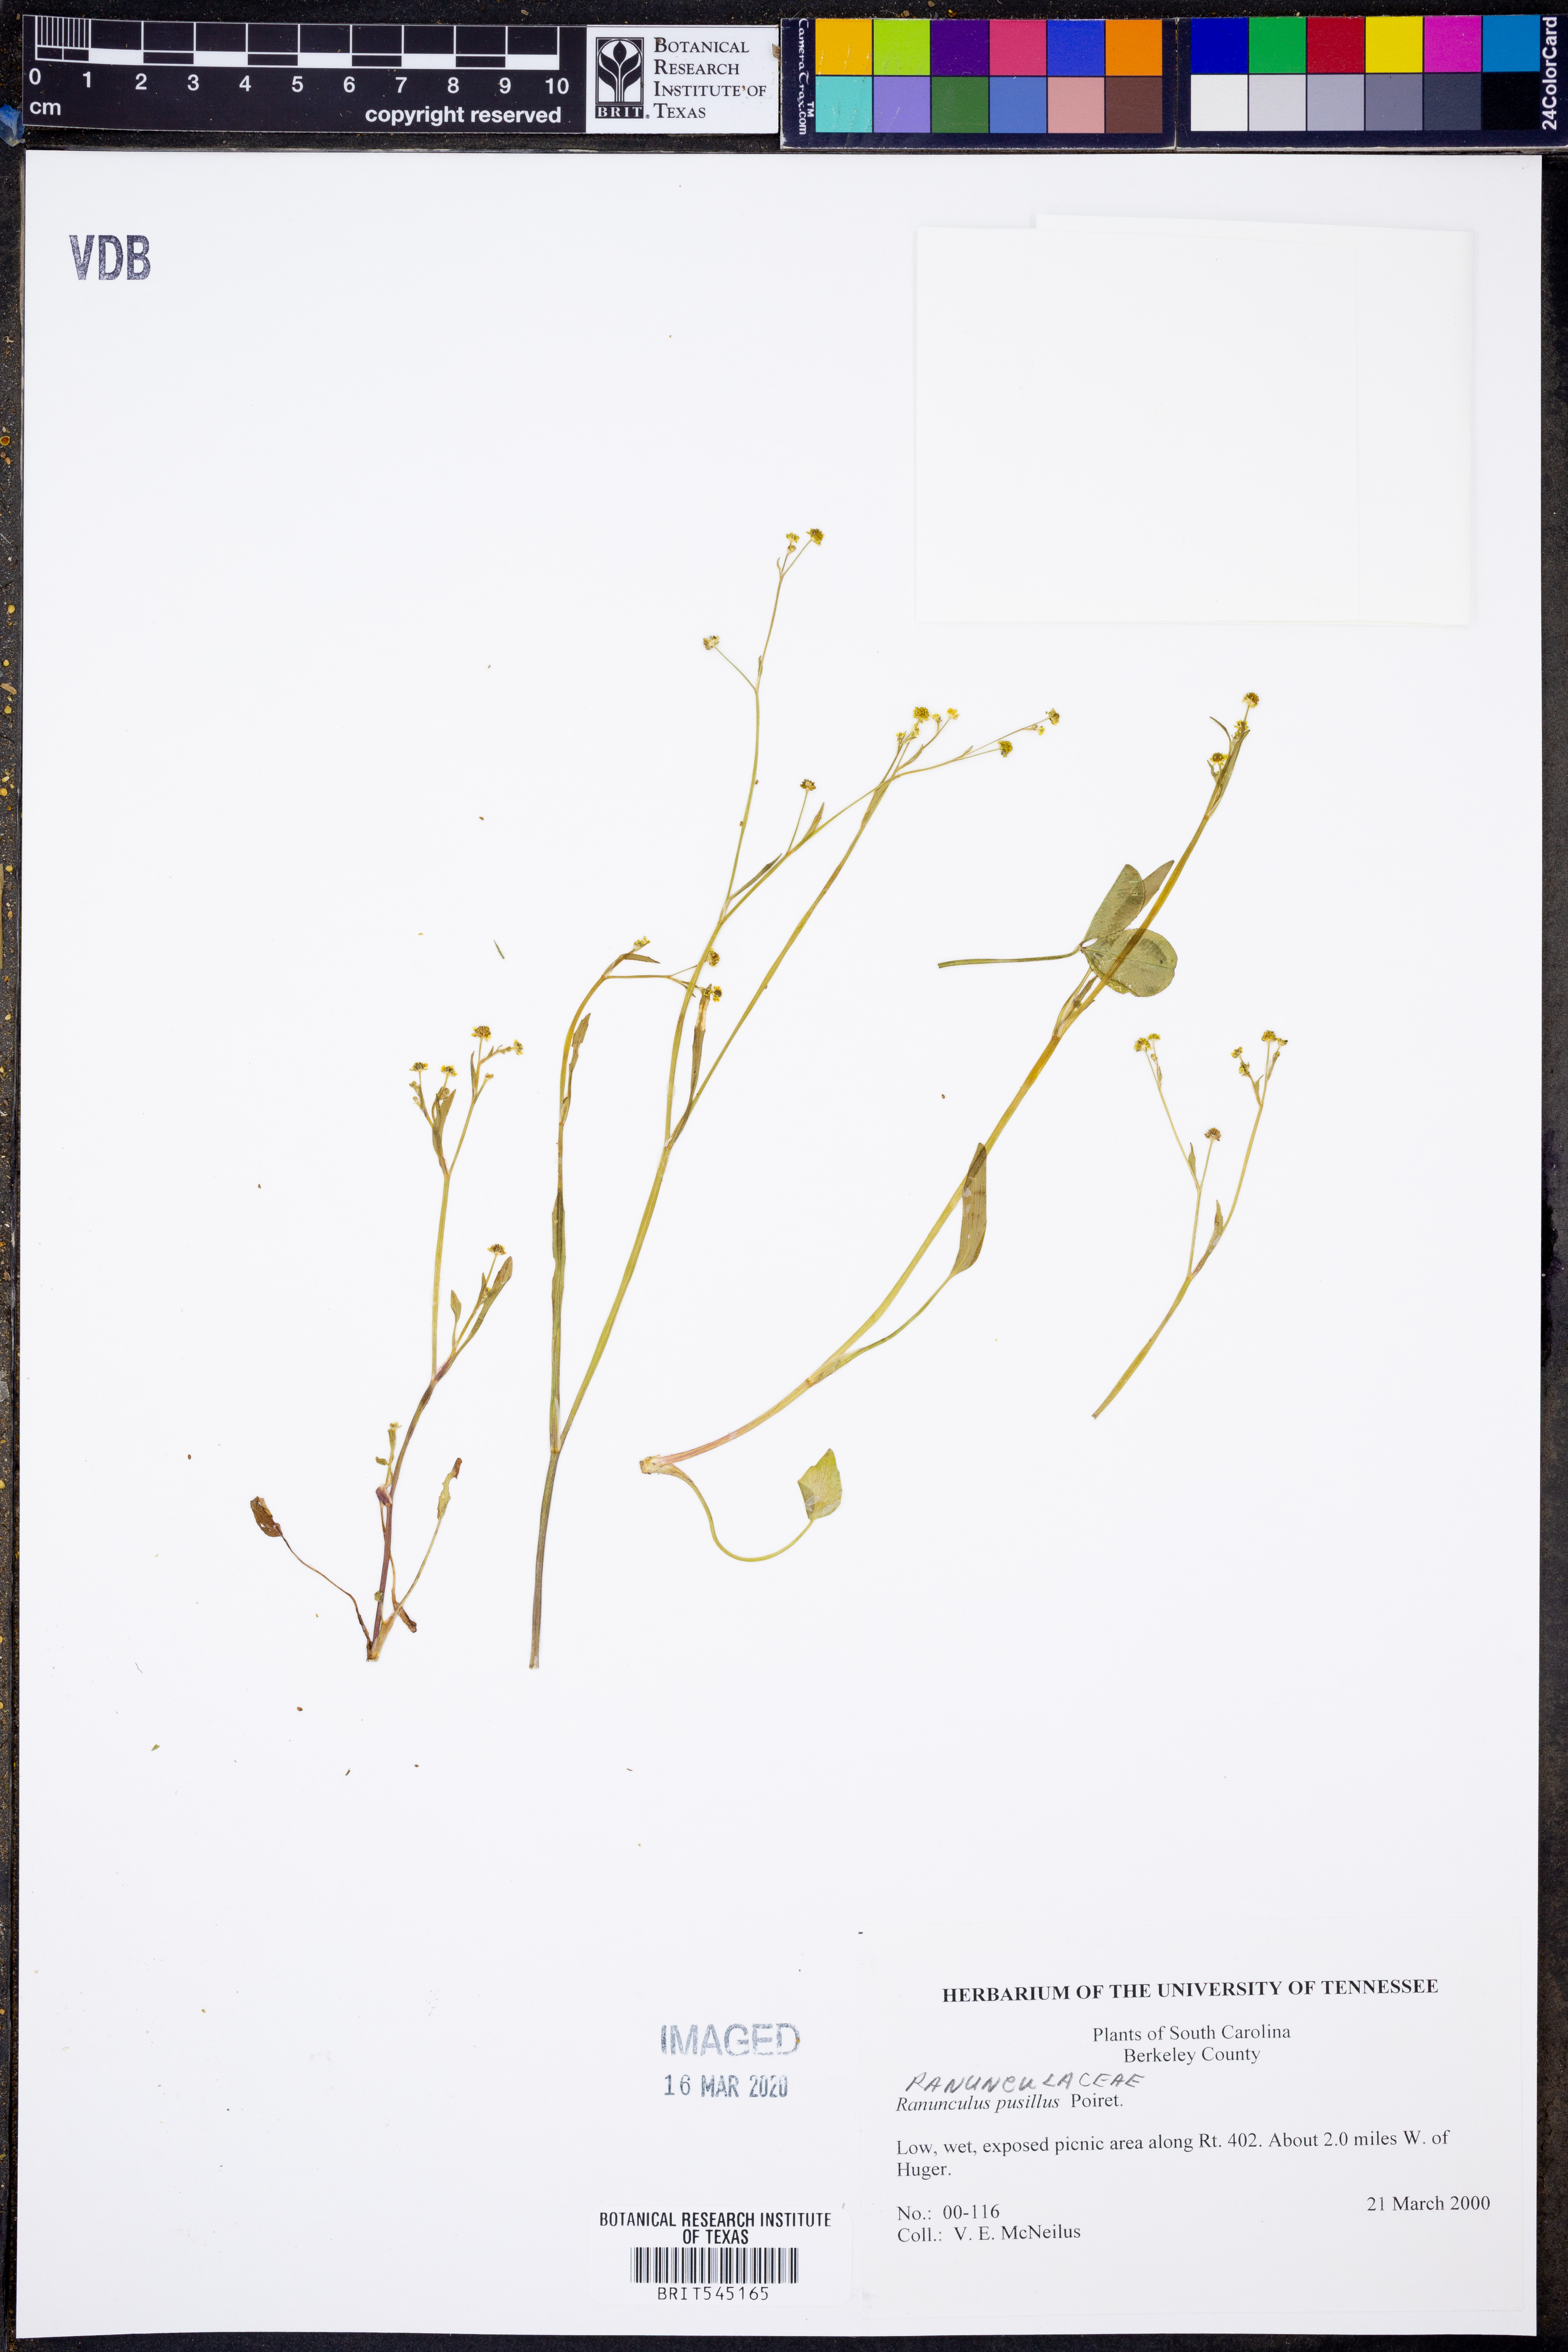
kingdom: Plantae
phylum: Tracheophyta
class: Magnoliopsida
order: Ranunculales
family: Ranunculaceae
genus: Ranunculus
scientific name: Ranunculus pusillus
